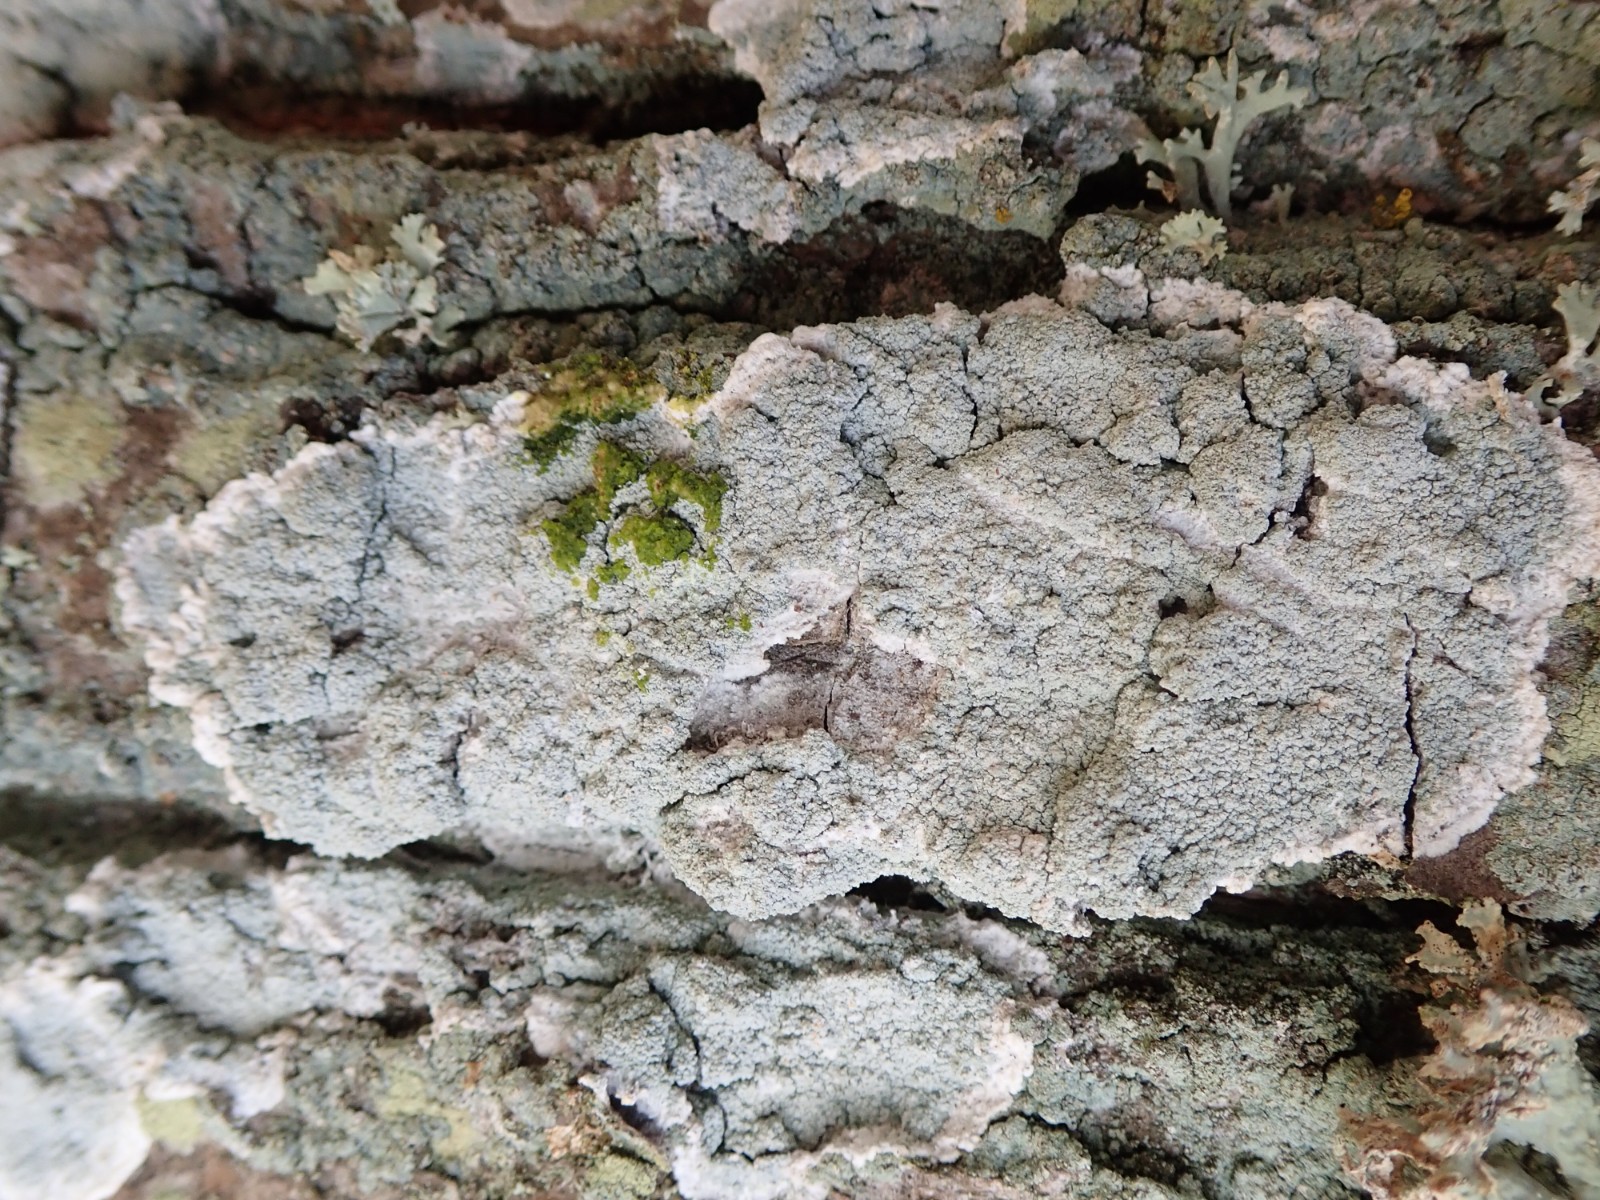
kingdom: Fungi
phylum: Ascomycota
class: Lecanoromycetes
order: Lecanorales
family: Haematommataceae
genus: Haematomma
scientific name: Haematomma ochroleucum
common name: gul trådkantlav
